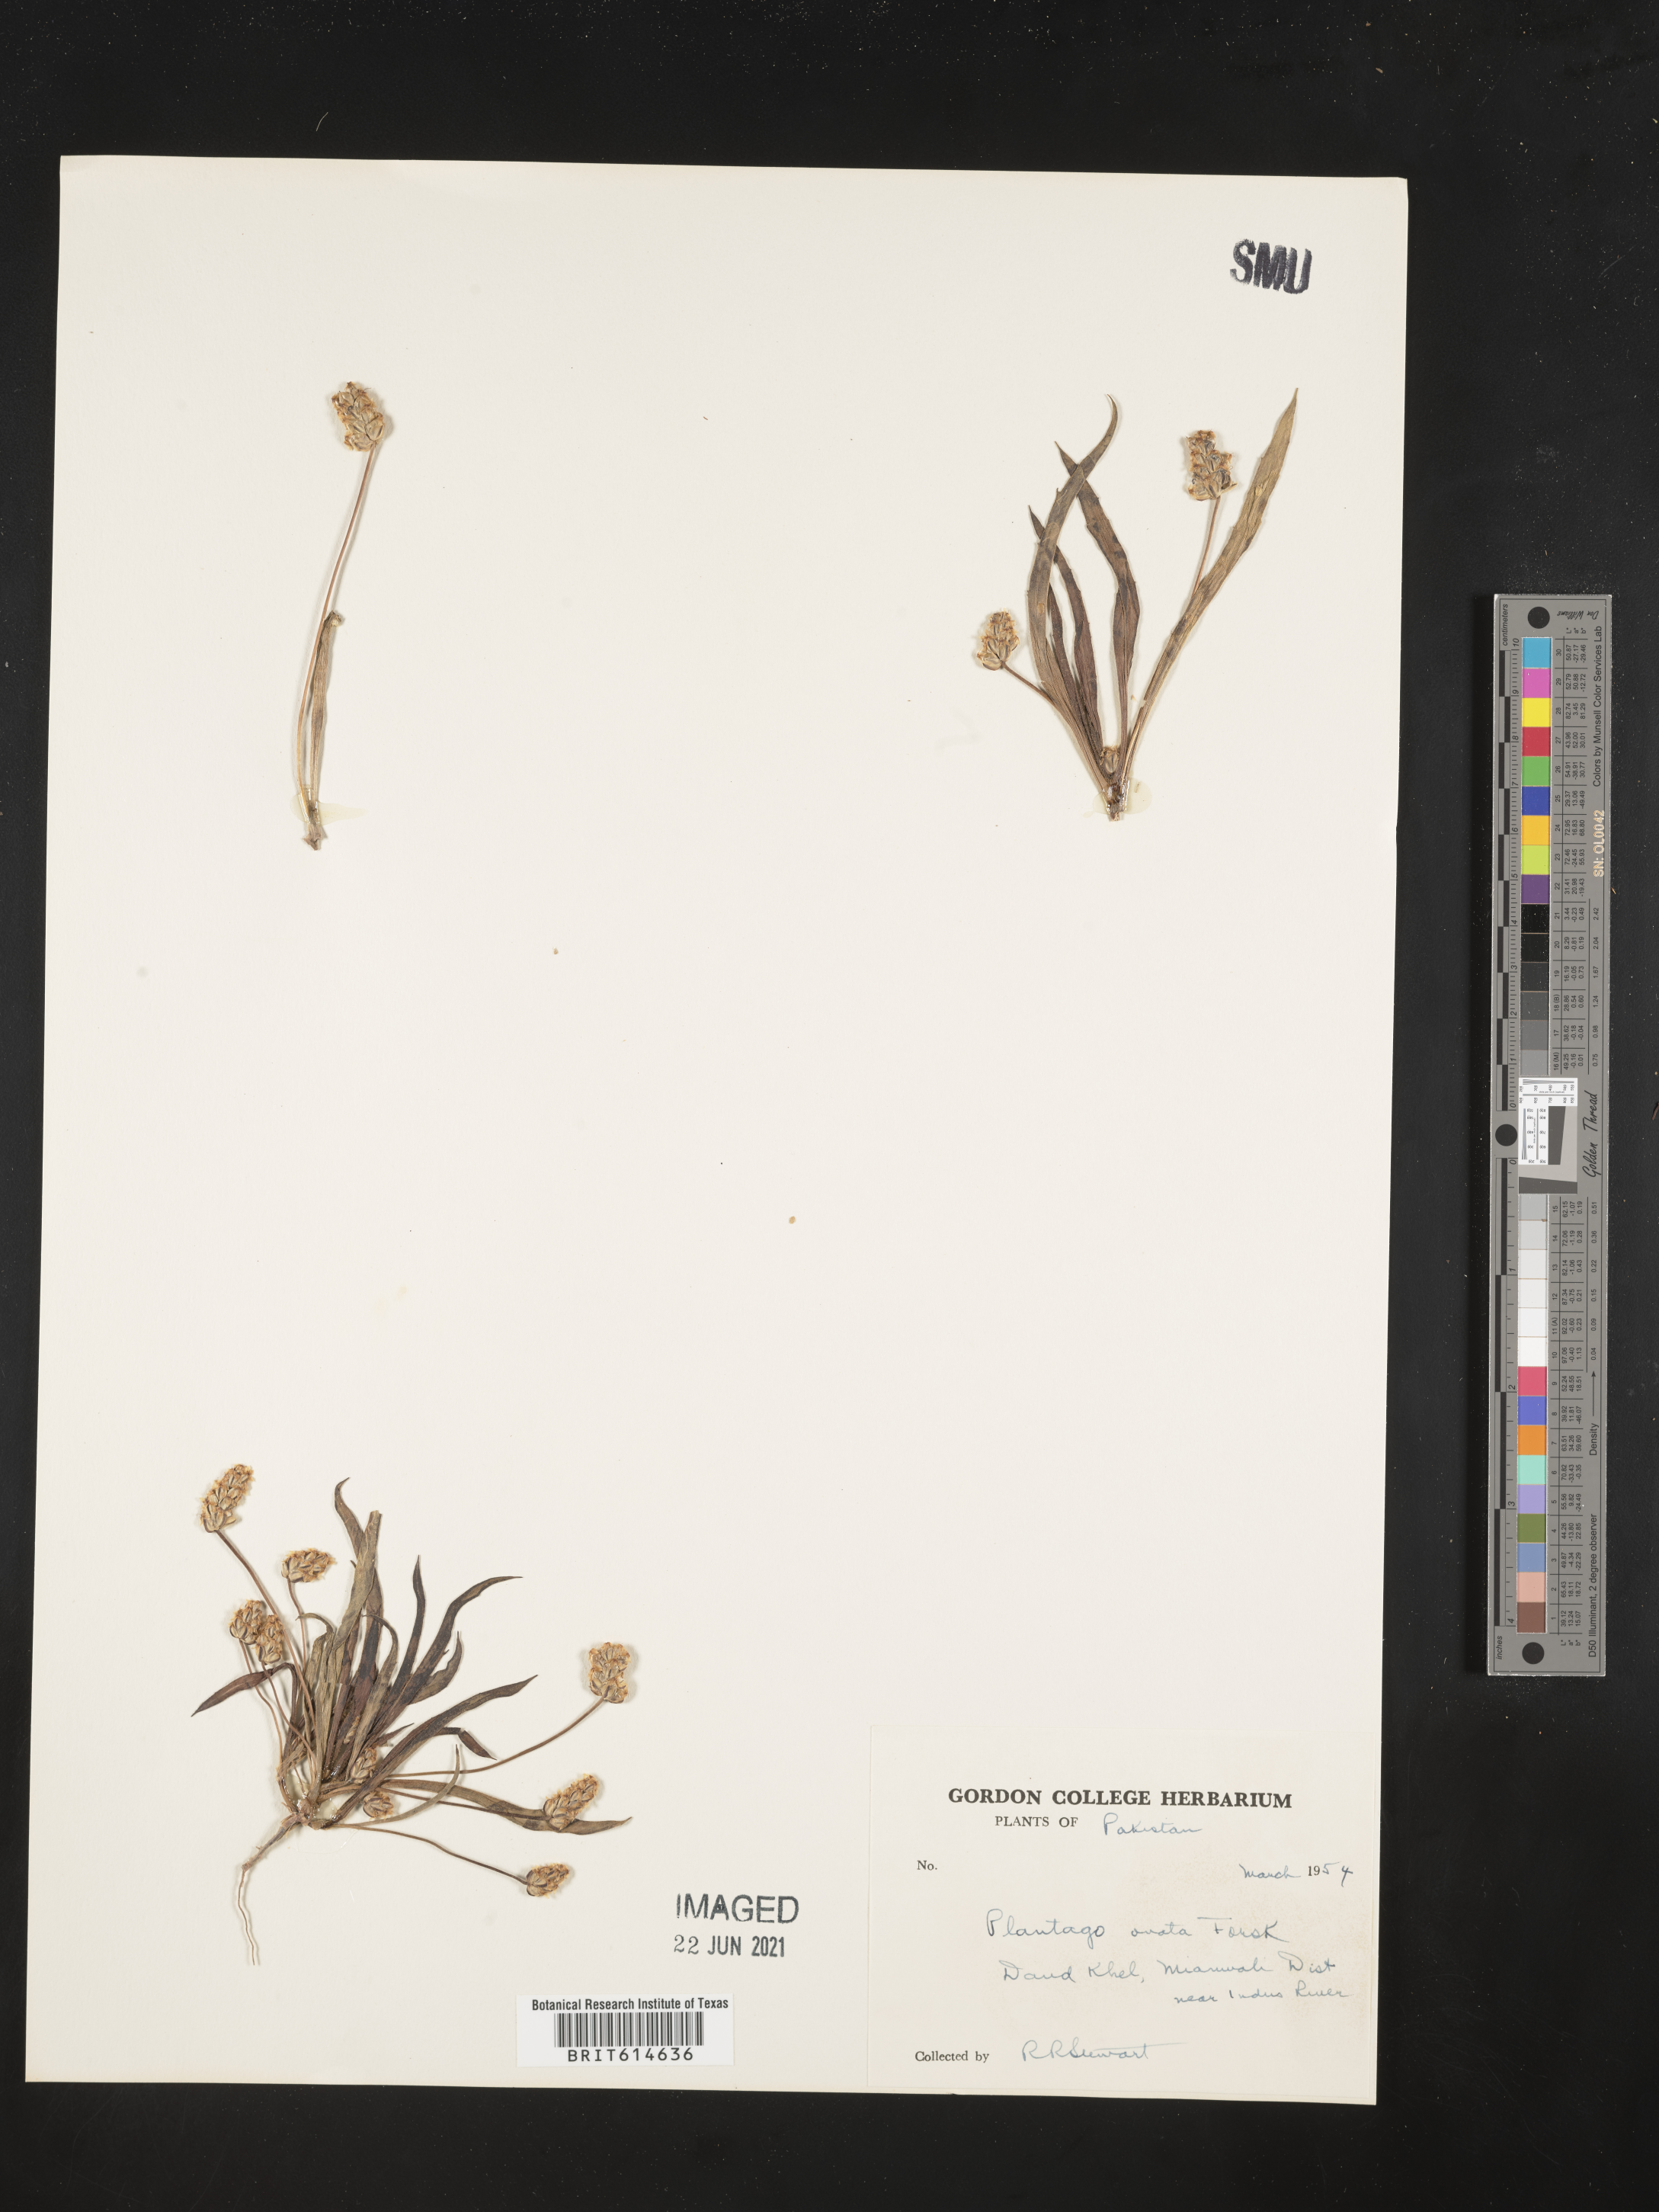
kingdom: Plantae
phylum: Tracheophyta
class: Magnoliopsida
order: Lamiales
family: Plantaginaceae
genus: Plantago
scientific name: Plantago ovata
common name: Blond plantain
